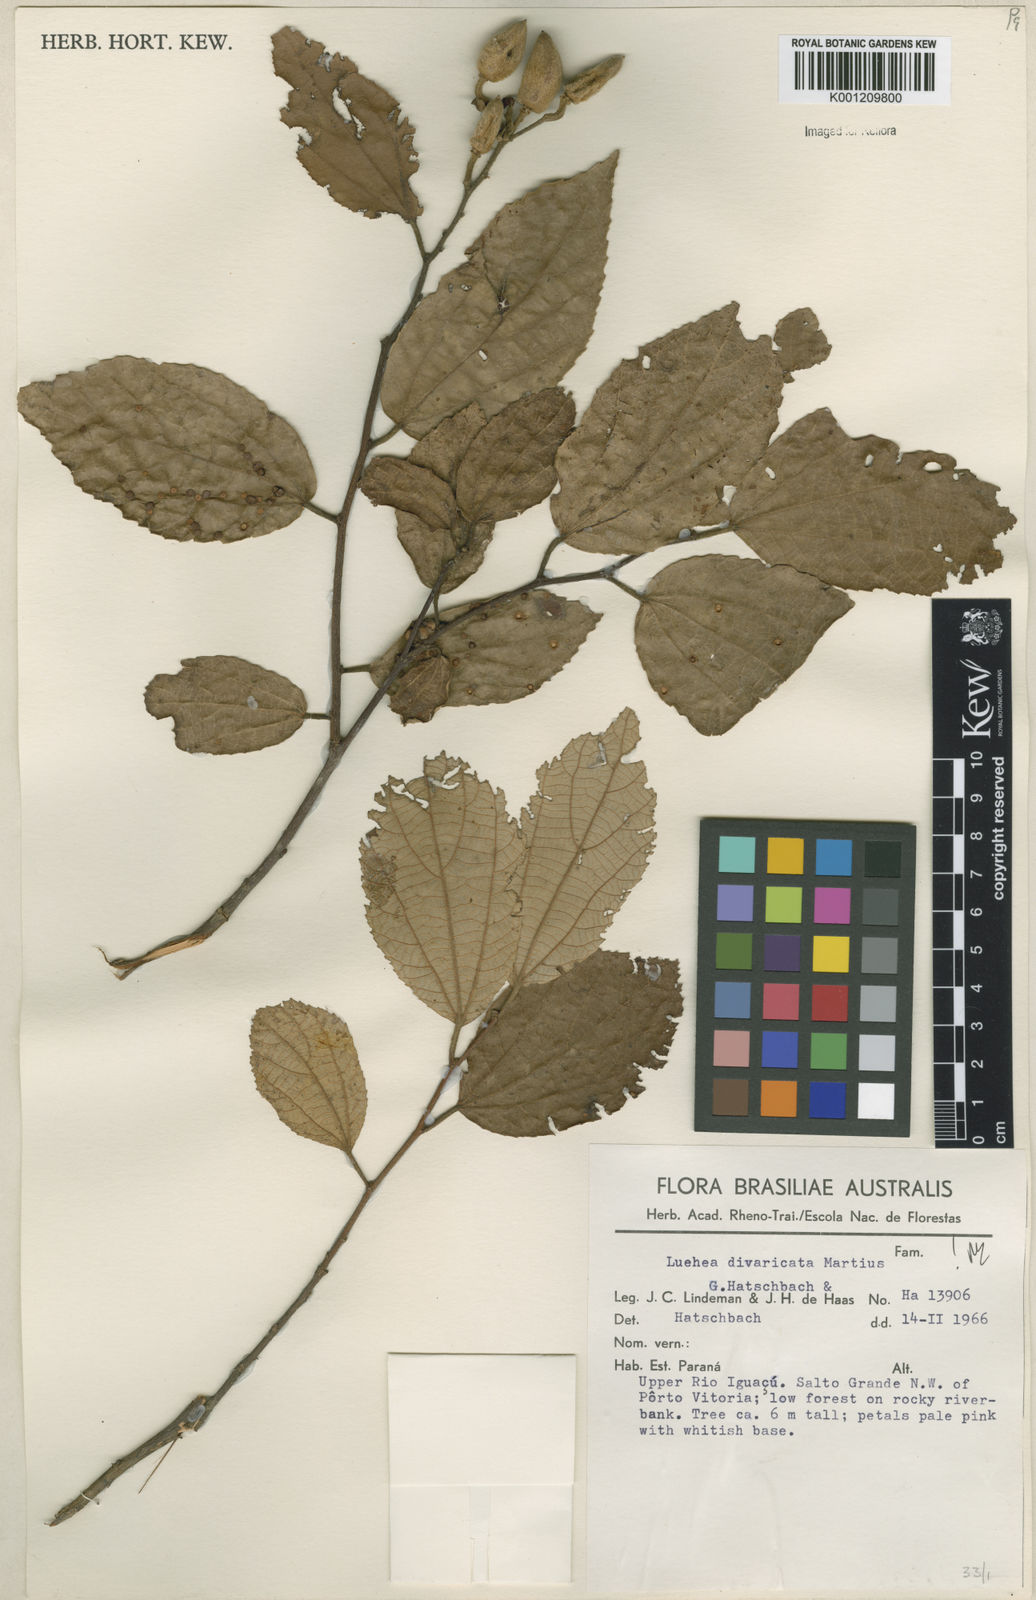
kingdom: Plantae
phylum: Tracheophyta
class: Magnoliopsida
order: Malvales
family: Malvaceae
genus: Luehea
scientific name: Luehea divaricata
